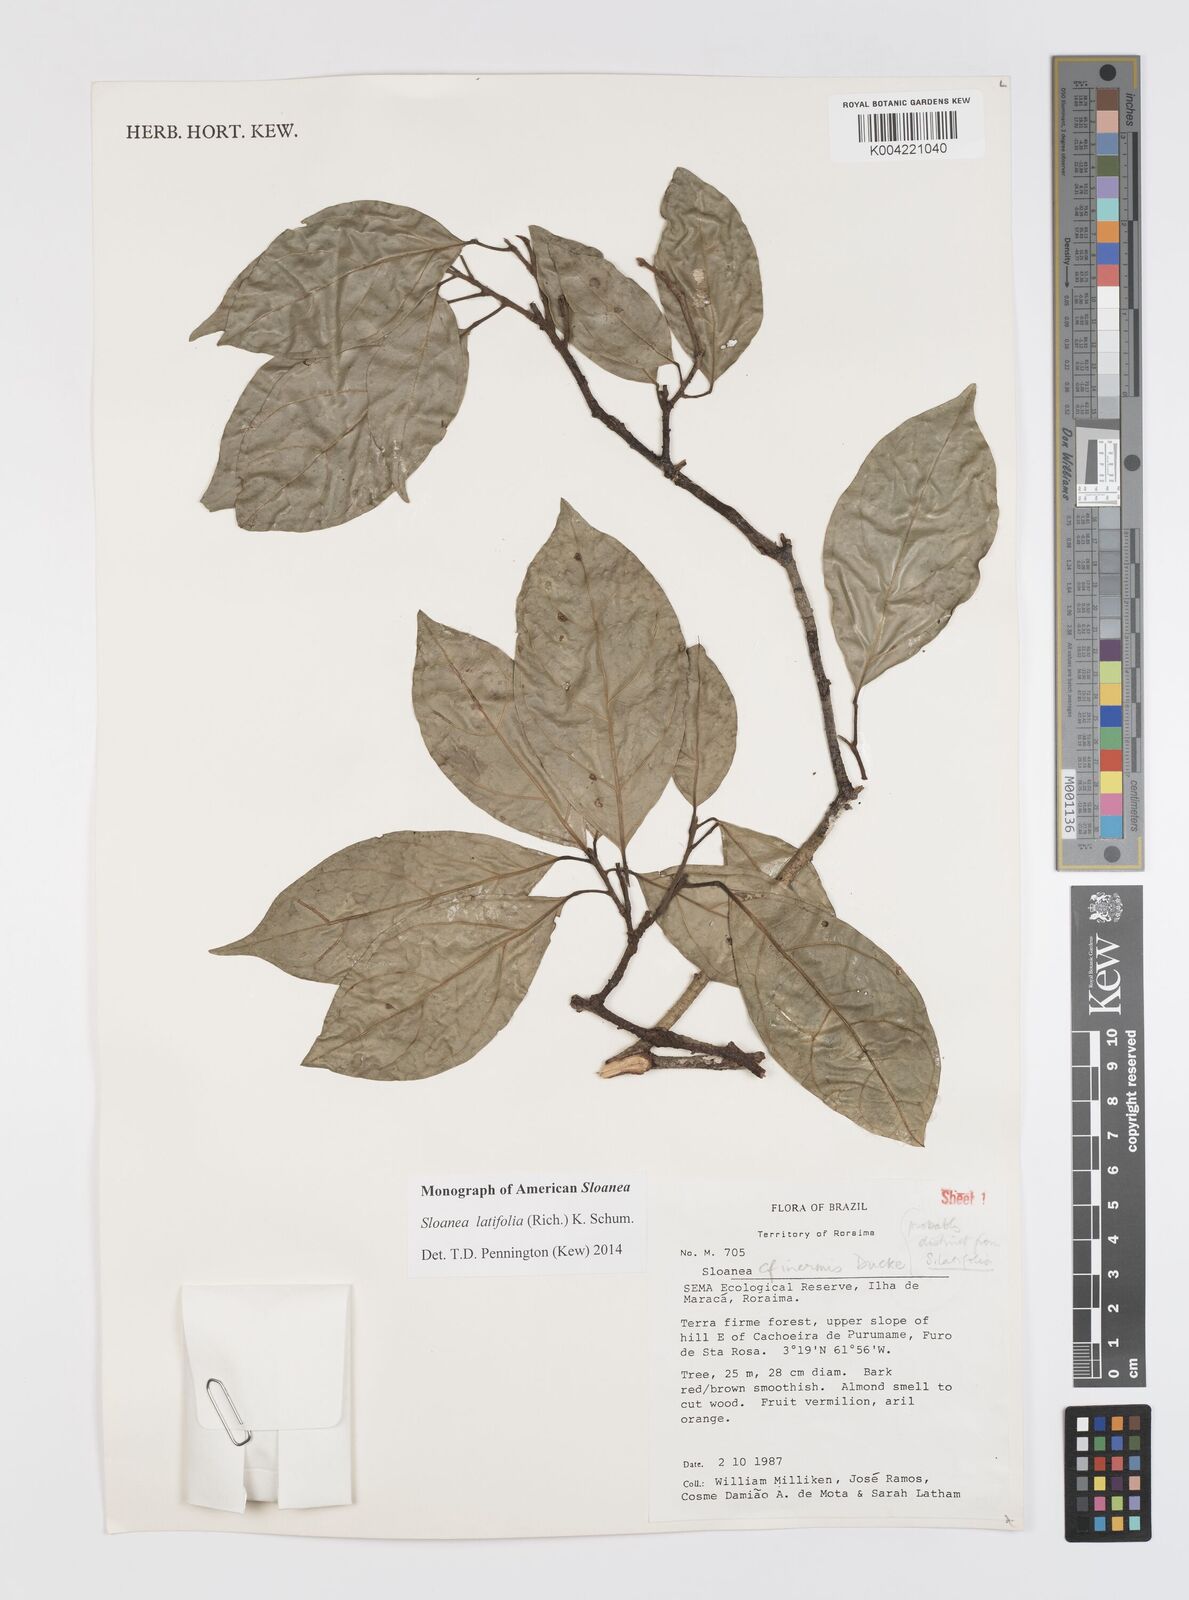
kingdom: Plantae
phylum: Tracheophyta
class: Magnoliopsida
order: Oxalidales
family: Elaeocarpaceae
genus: Sloanea
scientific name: Sloanea latifolia
